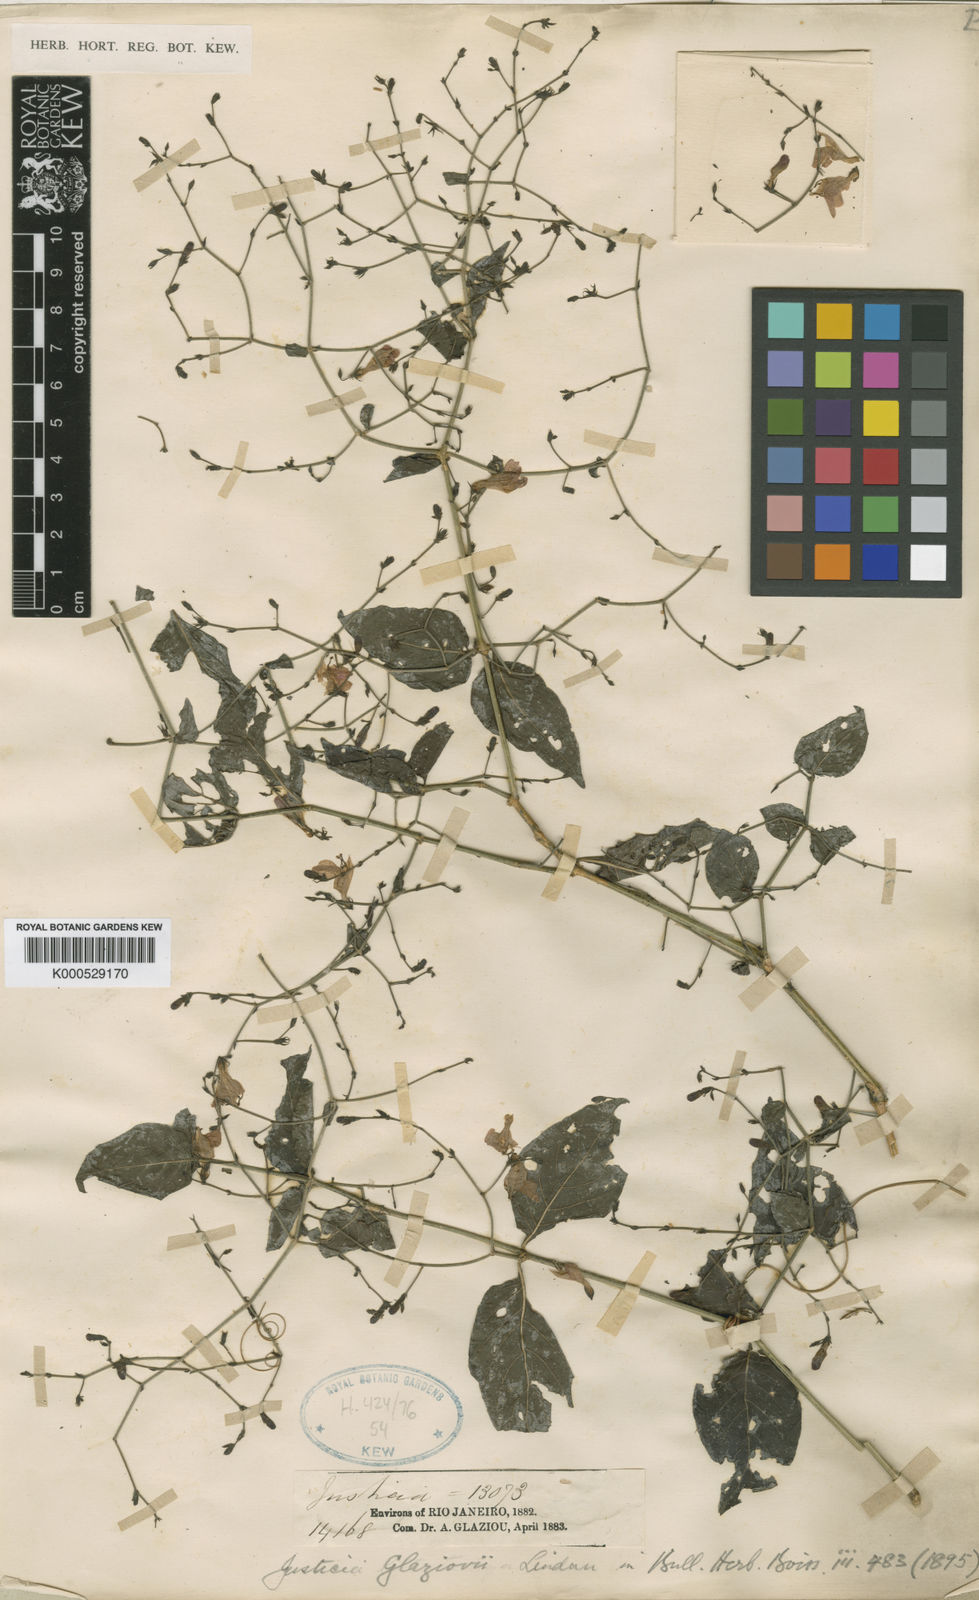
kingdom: Plantae
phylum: Tracheophyta
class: Magnoliopsida
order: Lamiales
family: Acanthaceae
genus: Justicia
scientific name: Justicia rubriflora
